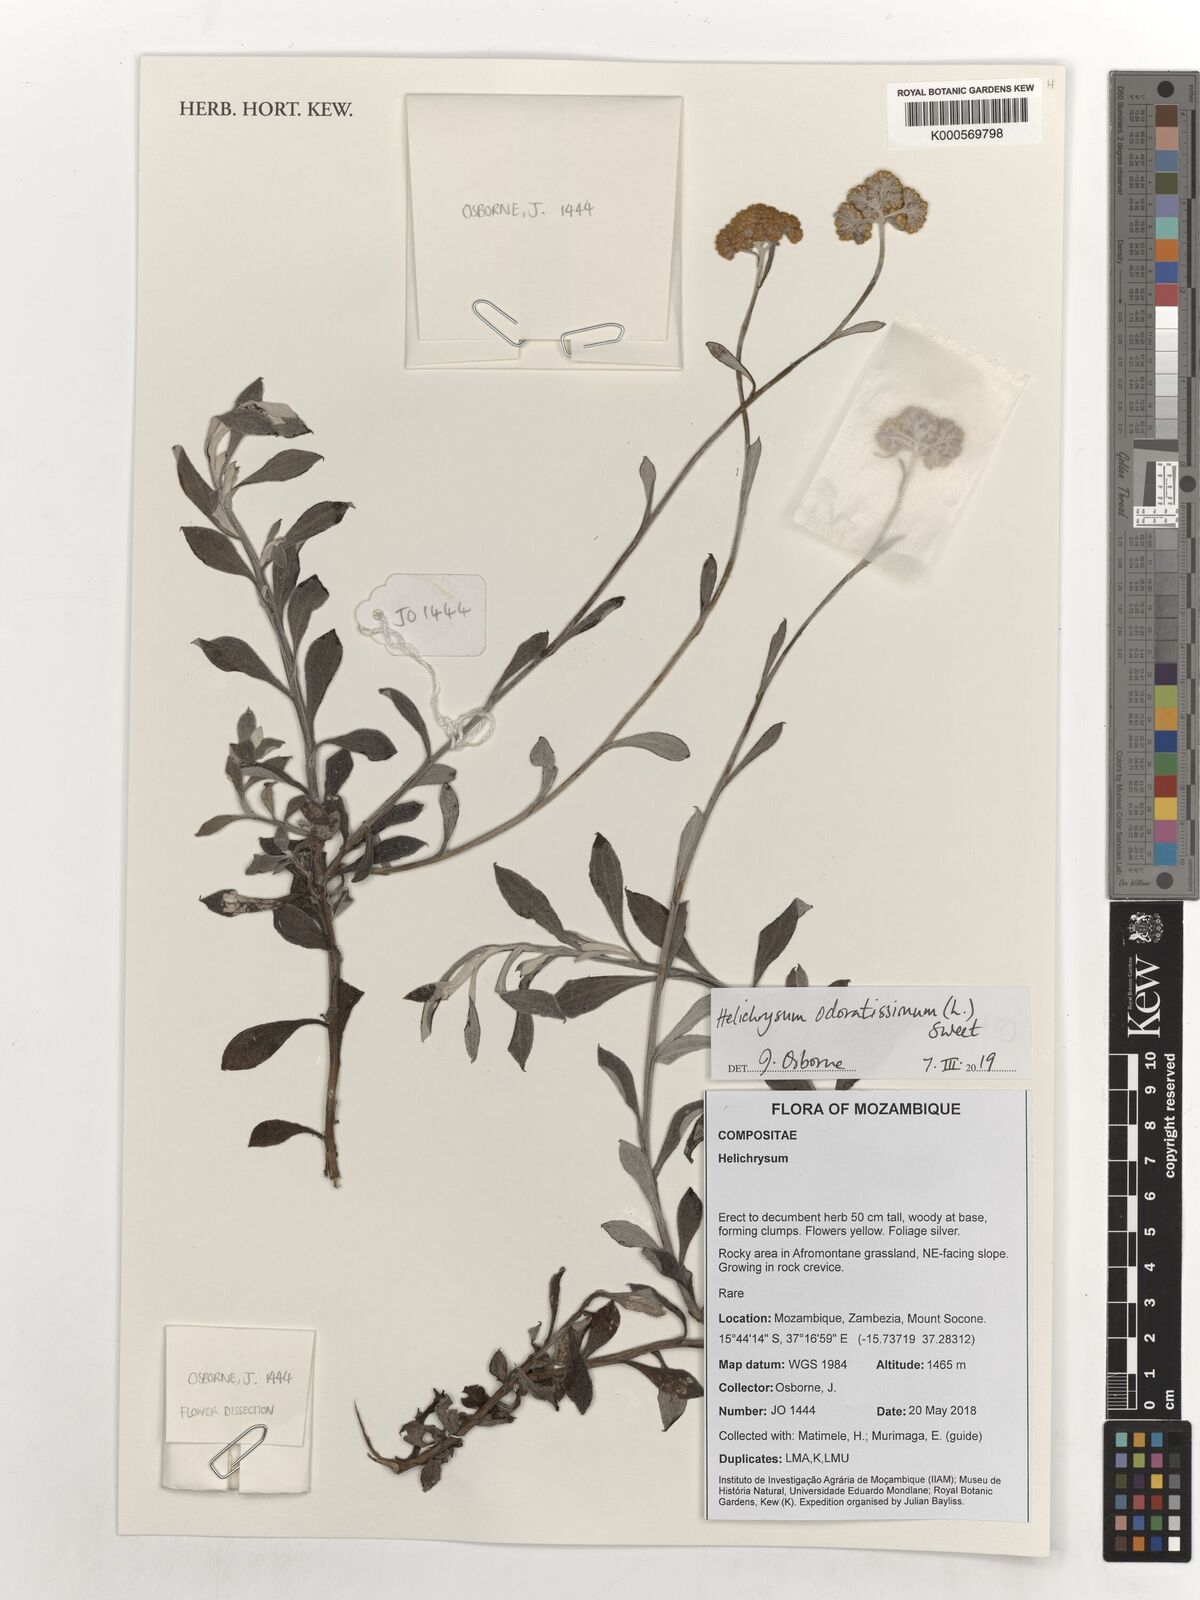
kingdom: Plantae
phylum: Tracheophyta
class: Magnoliopsida
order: Asterales
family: Asteraceae
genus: Helichrysum
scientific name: Helichrysum odoratissimum
